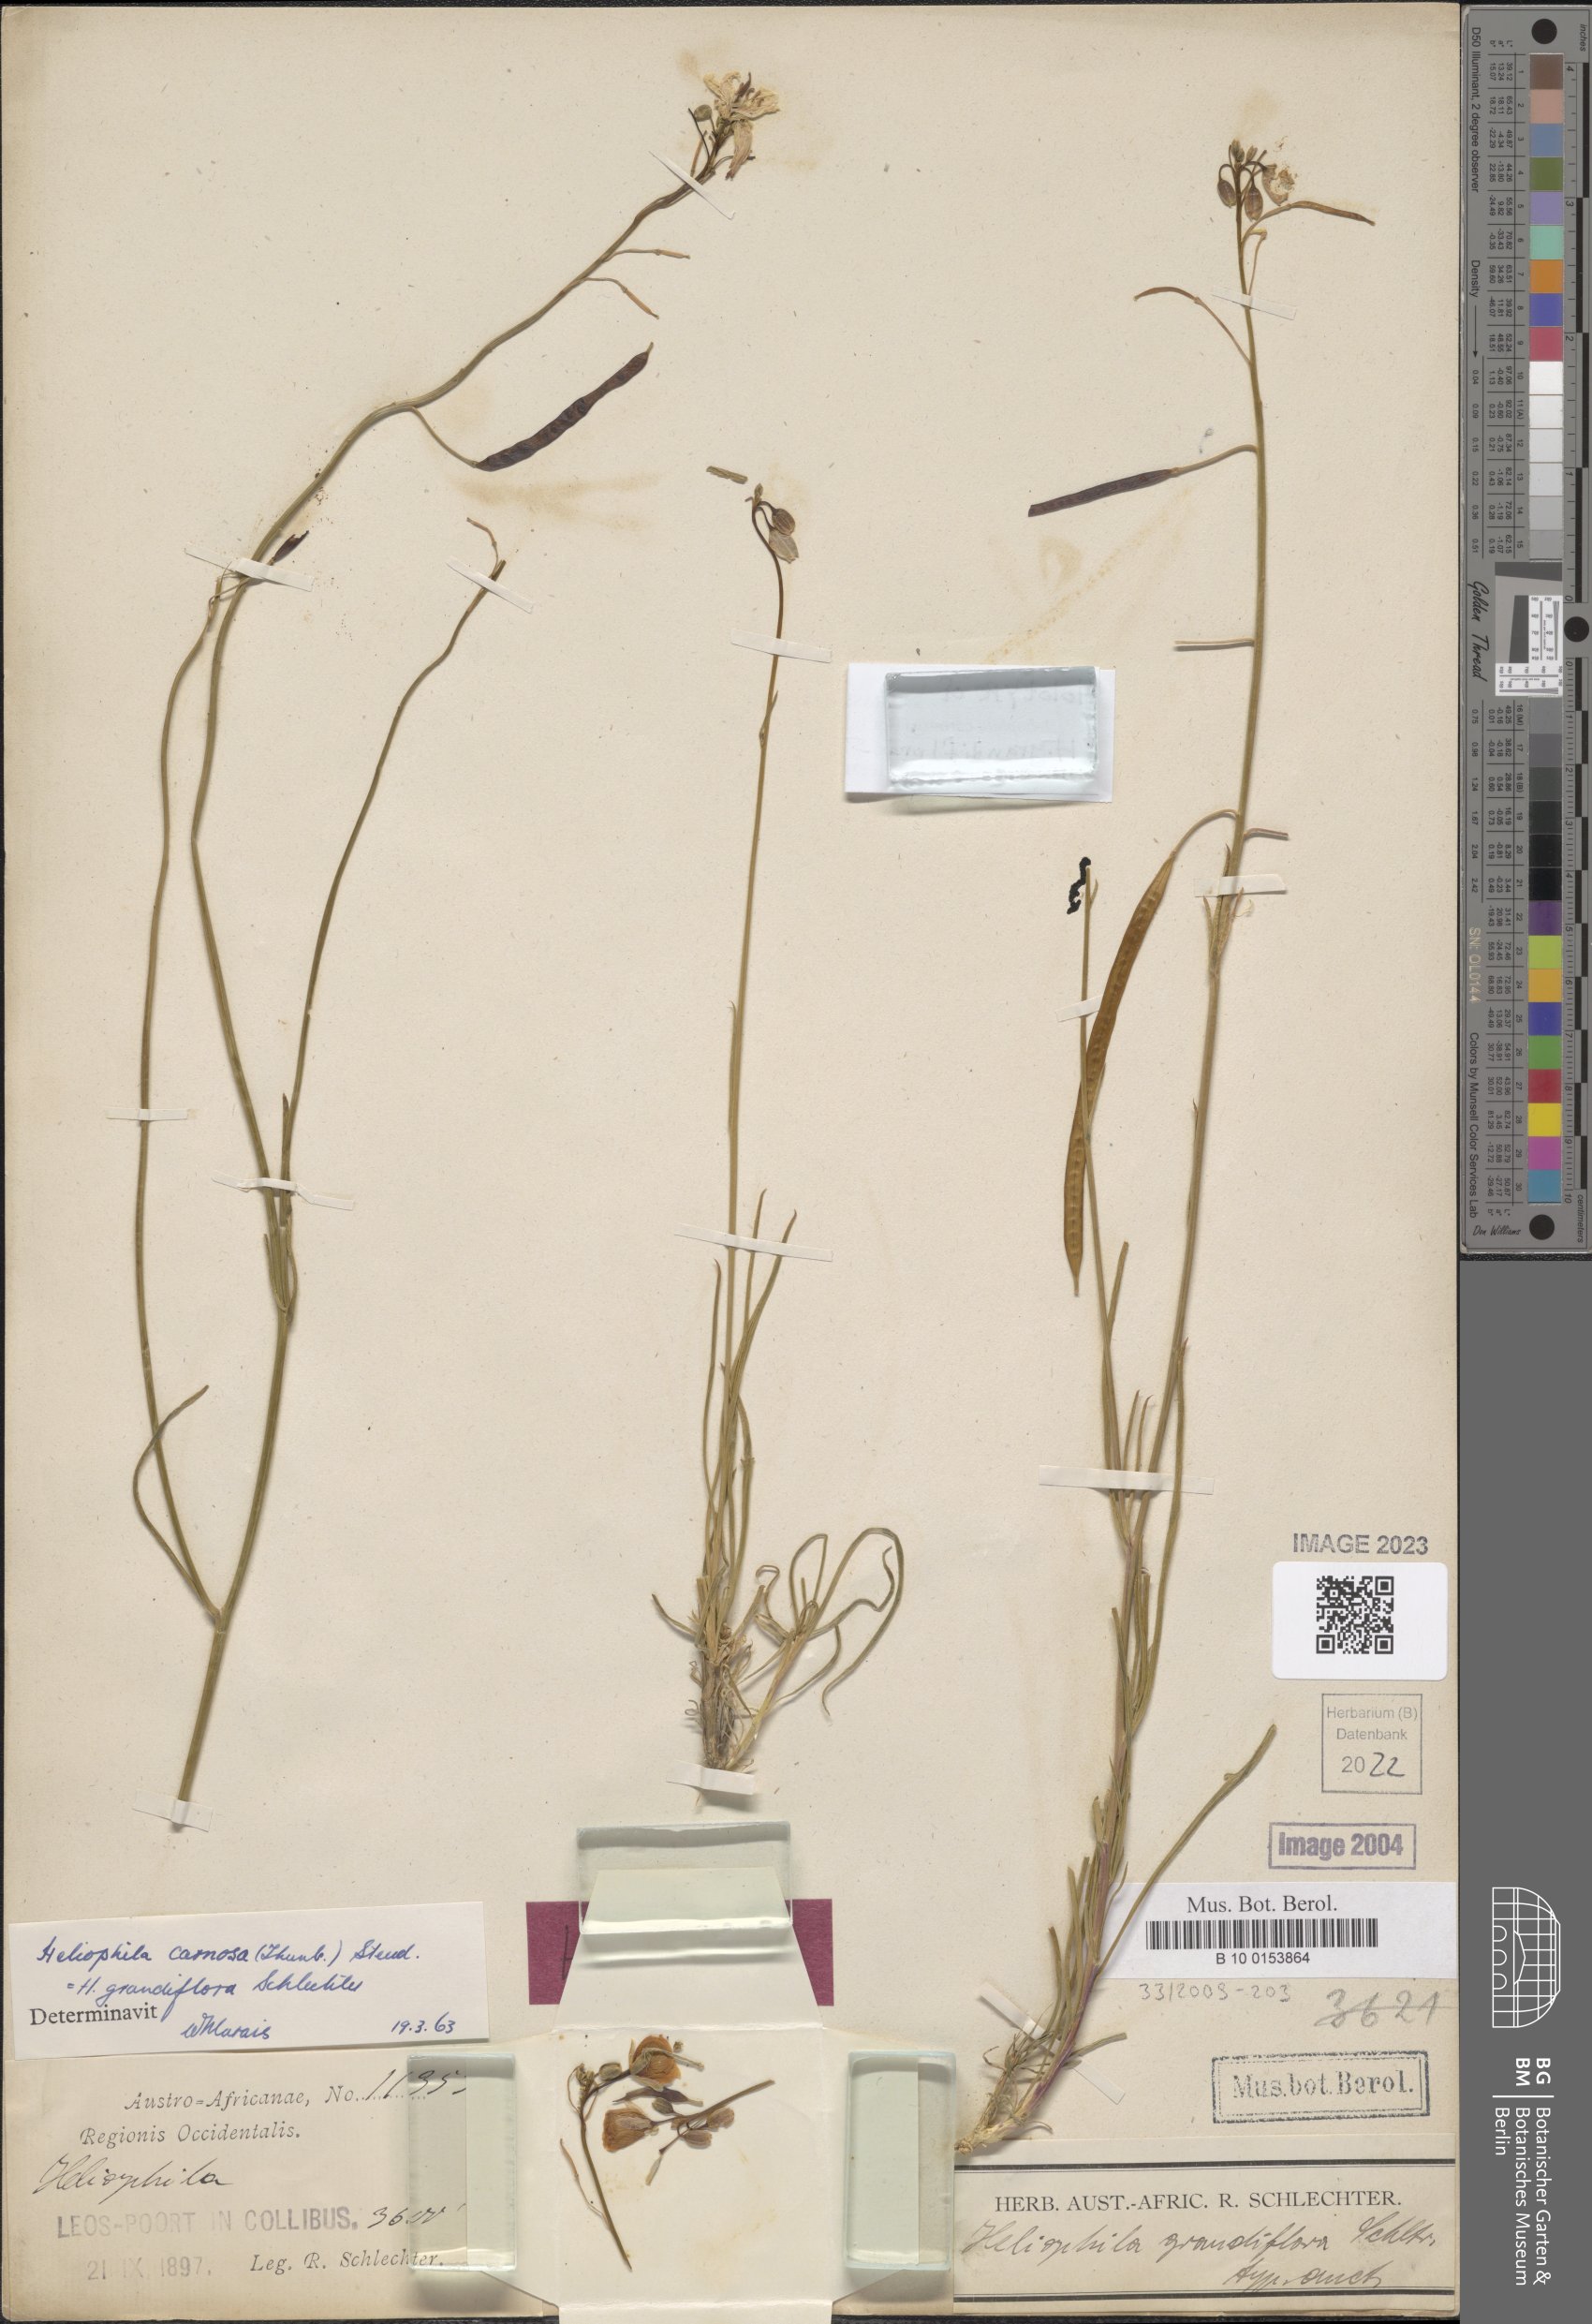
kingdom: Plantae
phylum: Tracheophyta
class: Magnoliopsida
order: Brassicales
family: Brassicaceae
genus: Heliophila
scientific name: Heliophila carnosa
